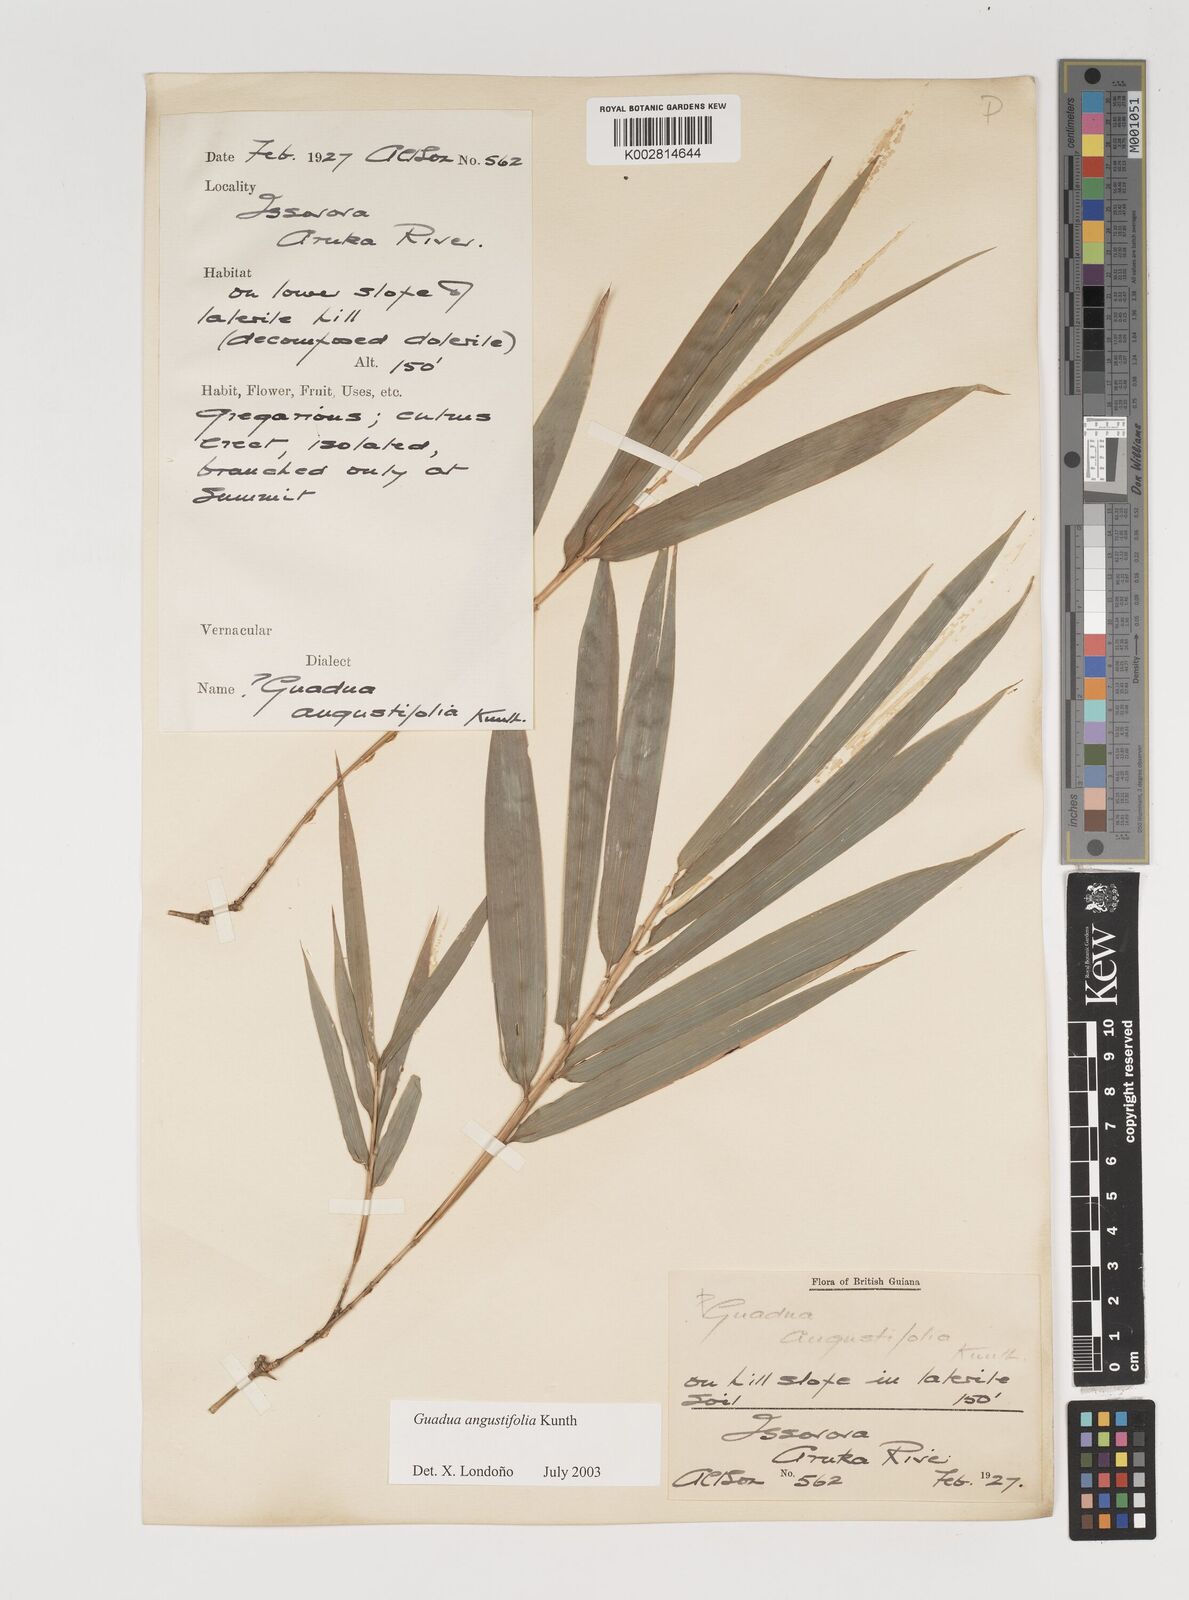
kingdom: Plantae
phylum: Tracheophyta
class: Liliopsida
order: Poales
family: Poaceae
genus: Guadua
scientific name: Guadua angustifolia
